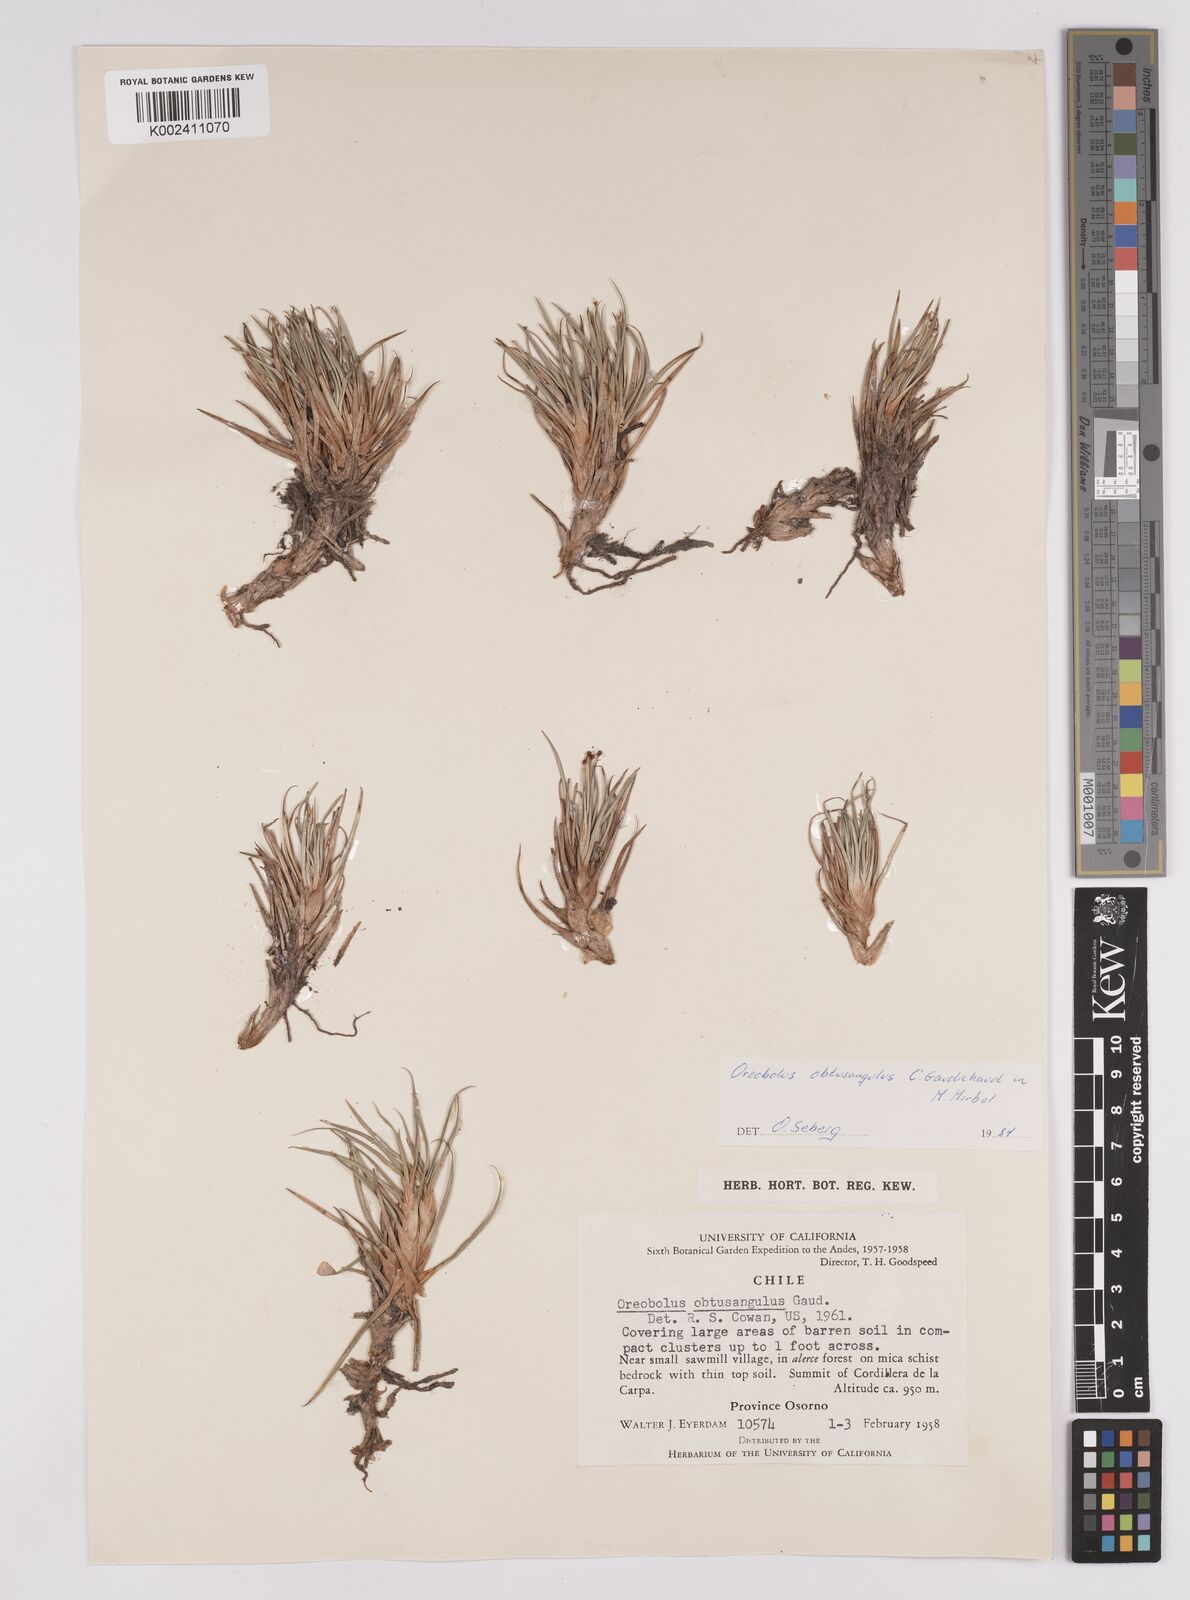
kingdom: Plantae
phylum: Tracheophyta
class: Liliopsida
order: Poales
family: Cyperaceae
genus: Oreobolus
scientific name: Oreobolus obtusangulus
